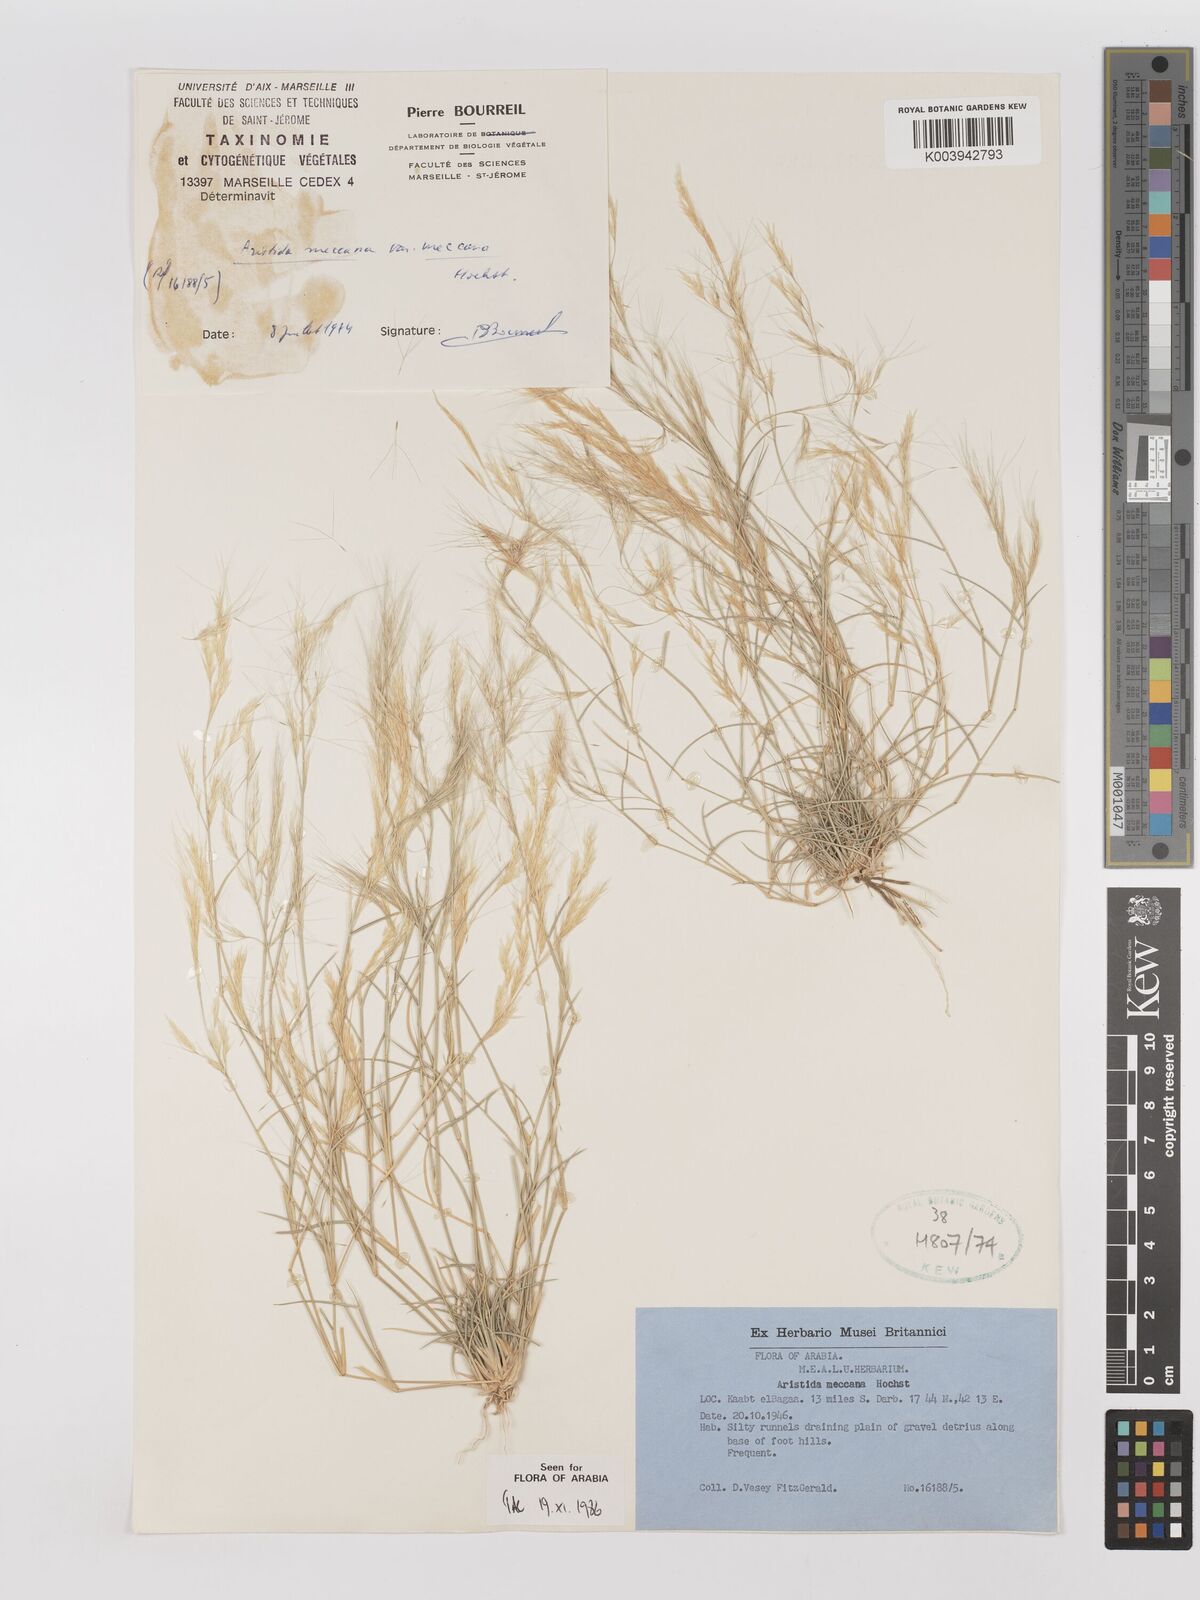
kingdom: Plantae
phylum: Tracheophyta
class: Liliopsida
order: Poales
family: Poaceae
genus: Aristida
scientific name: Aristida mutabilis
